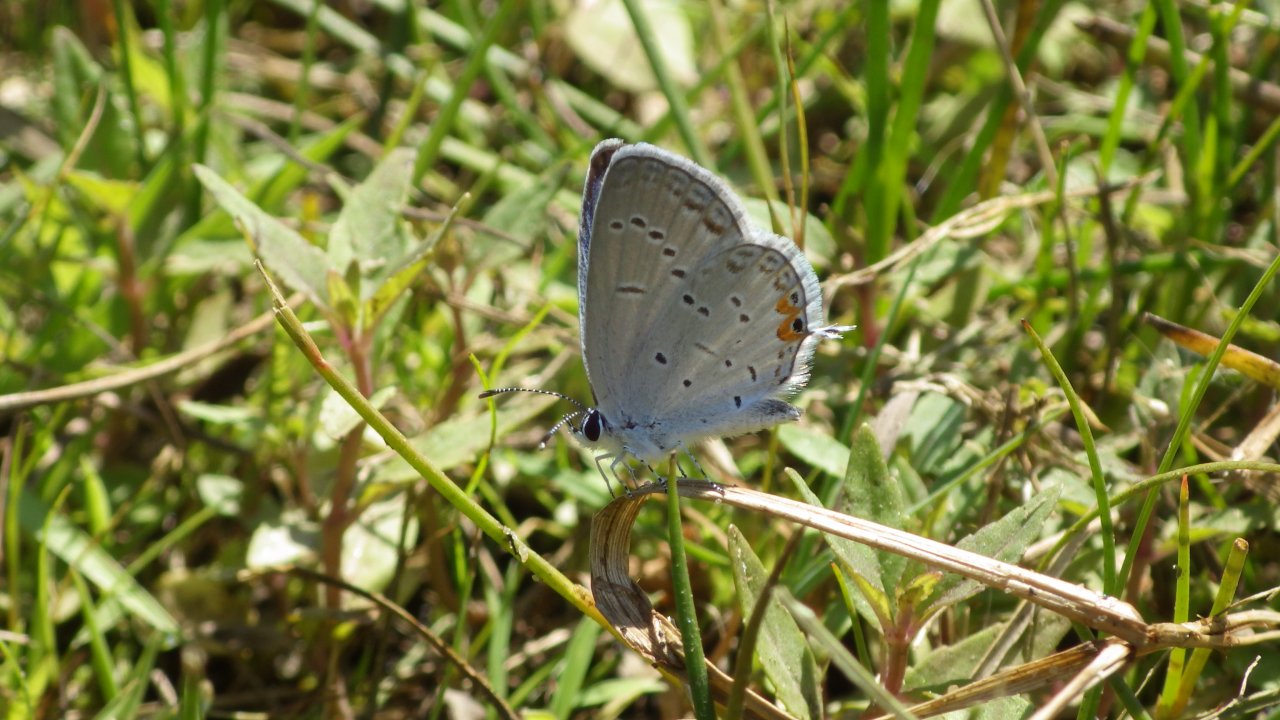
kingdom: Animalia
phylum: Arthropoda
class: Insecta
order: Lepidoptera
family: Lycaenidae
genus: Elkalyce
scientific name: Elkalyce comyntas
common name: Eastern Tailed-Blue
